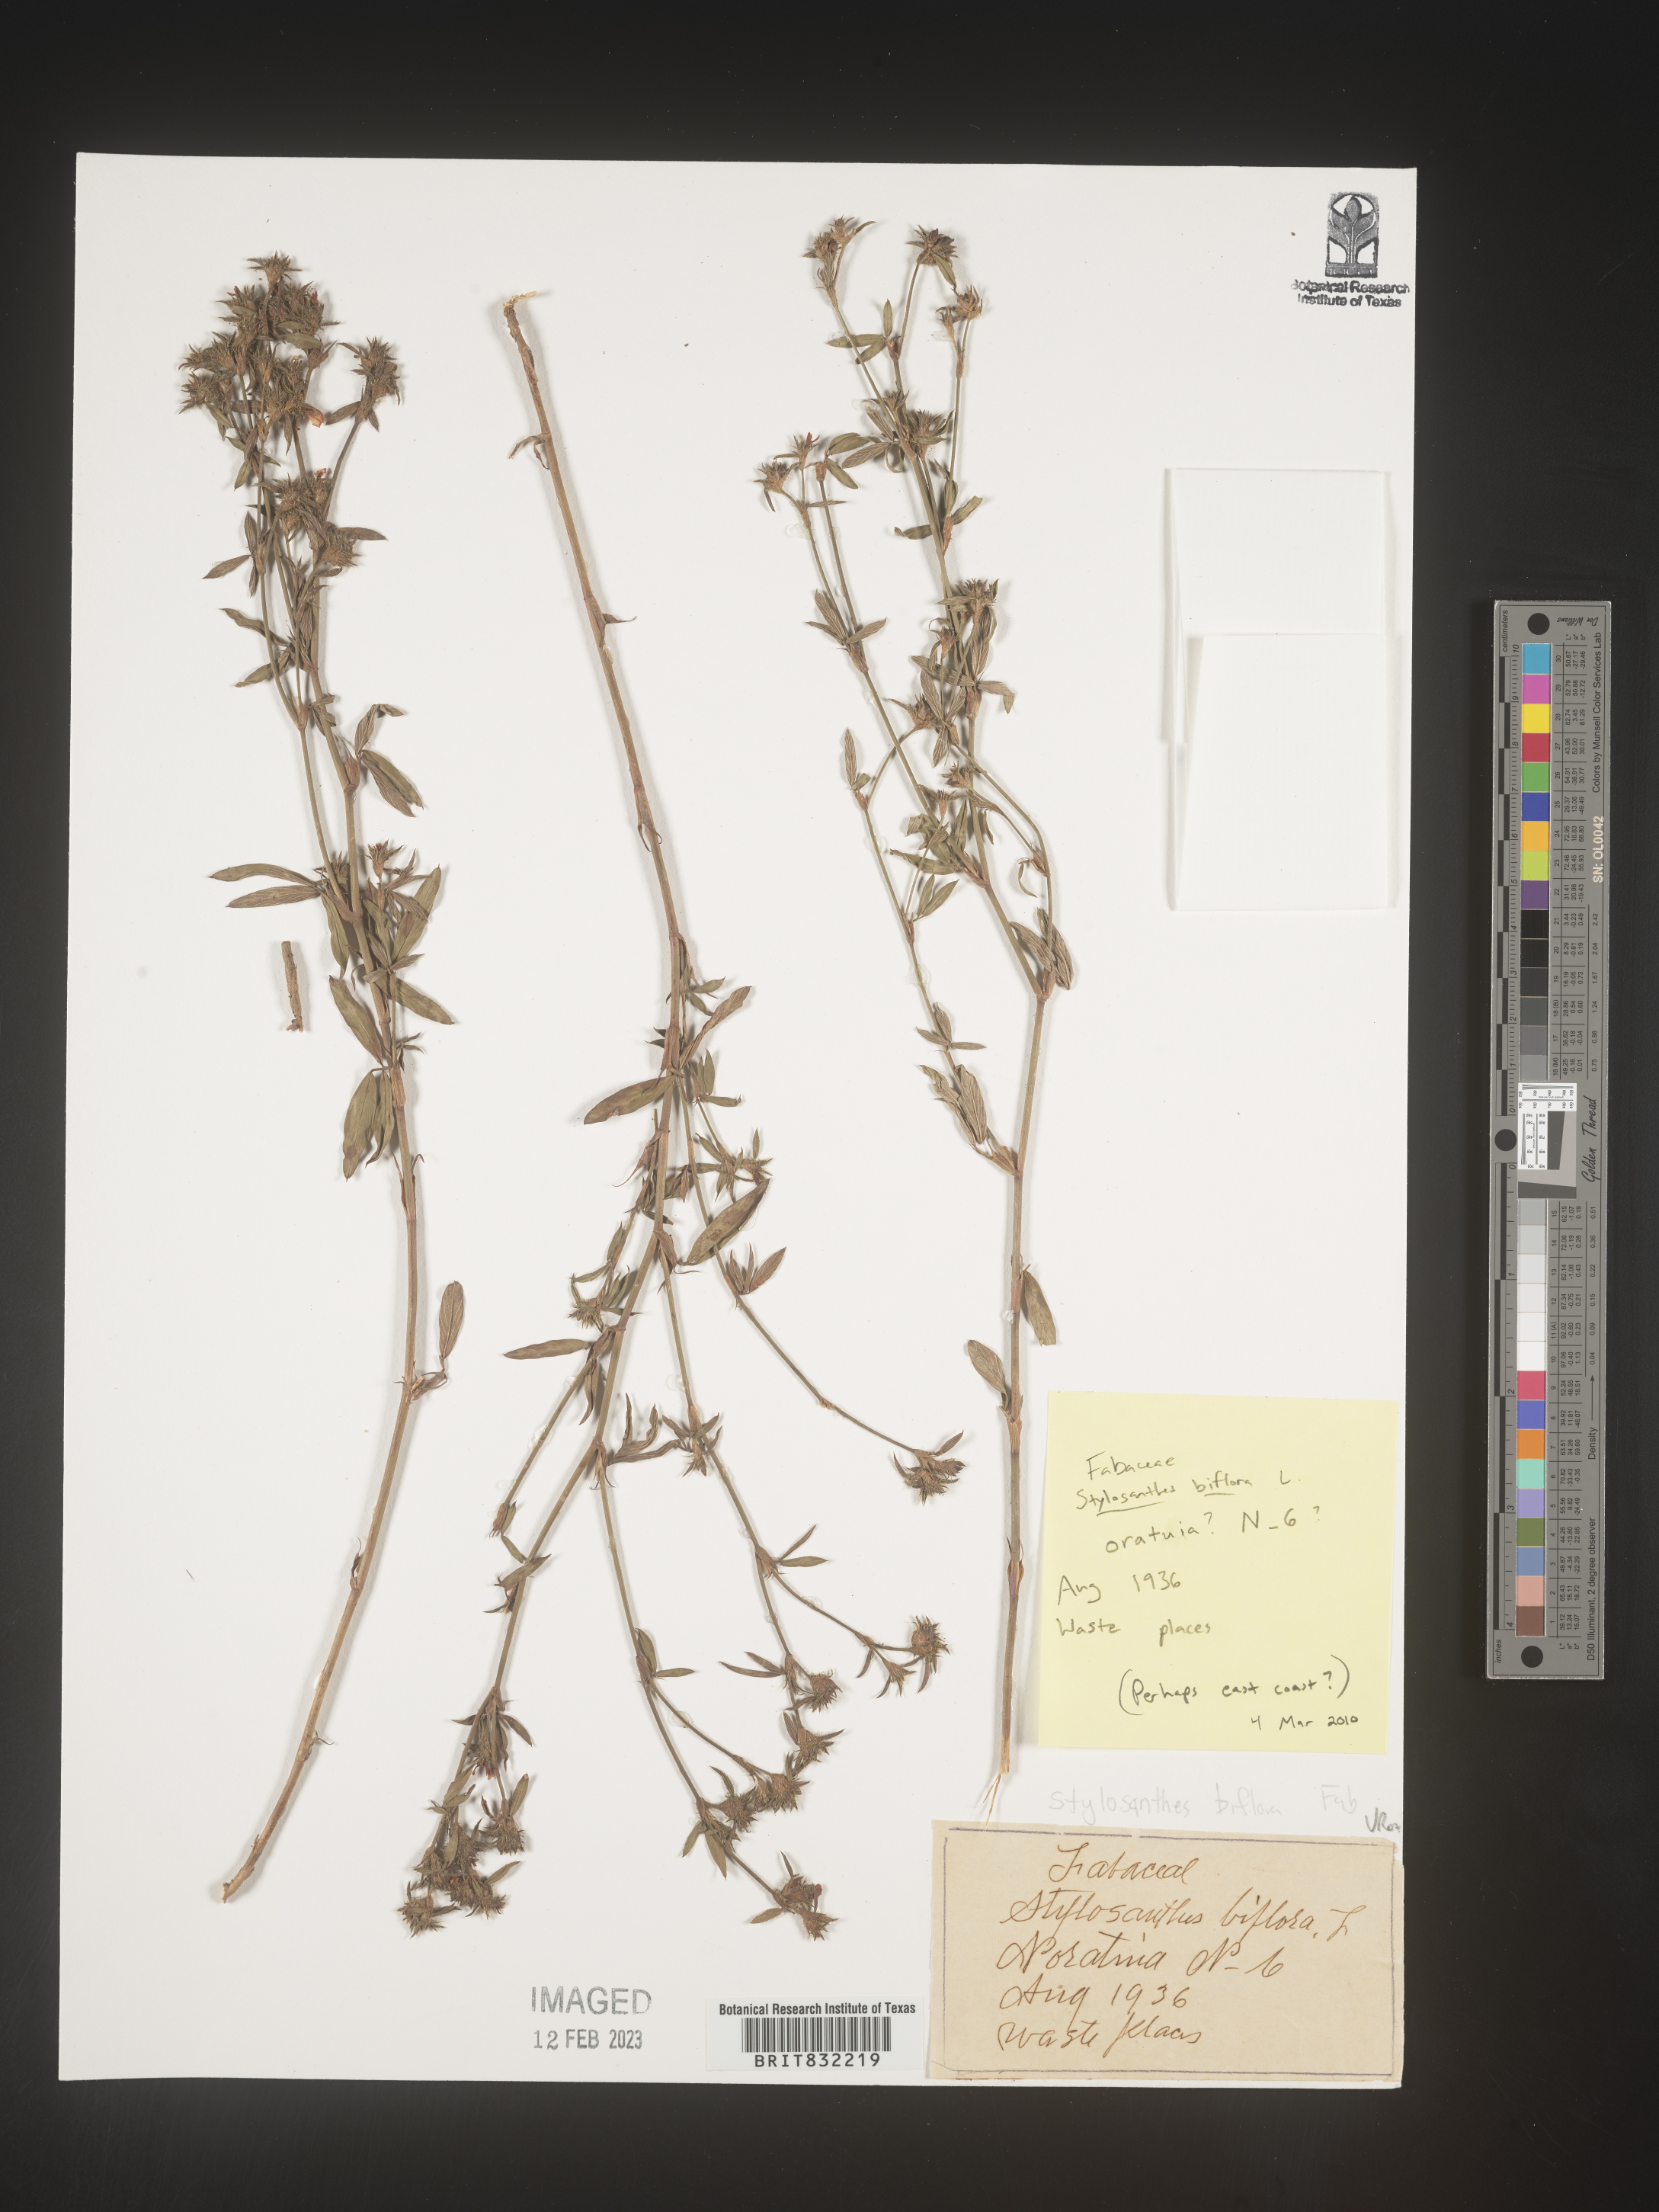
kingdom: Plantae
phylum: Tracheophyta
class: Magnoliopsida
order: Fabales
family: Fabaceae
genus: Stylosanthes
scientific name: Stylosanthes biflora
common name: Two-flower pencil-flower
